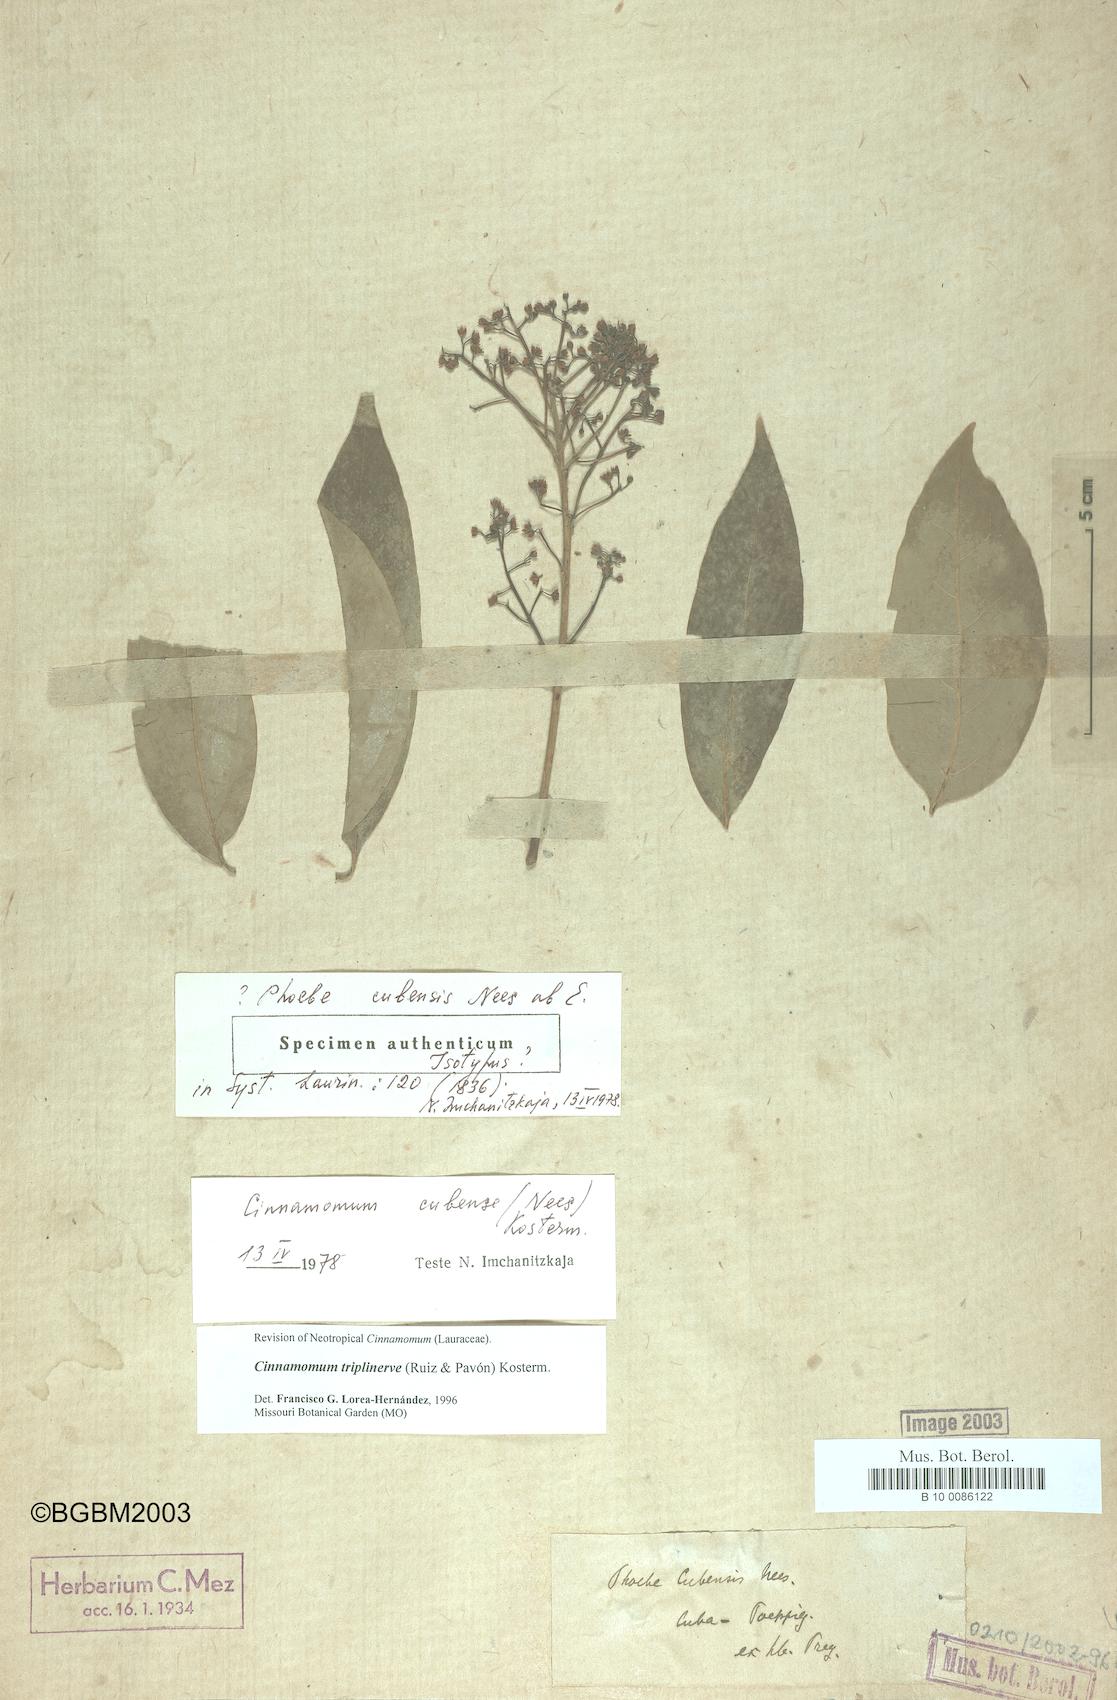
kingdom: Plantae
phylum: Tracheophyta
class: Magnoliopsida
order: Laurales
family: Lauraceae
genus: Aiouea
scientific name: Aiouea montana
